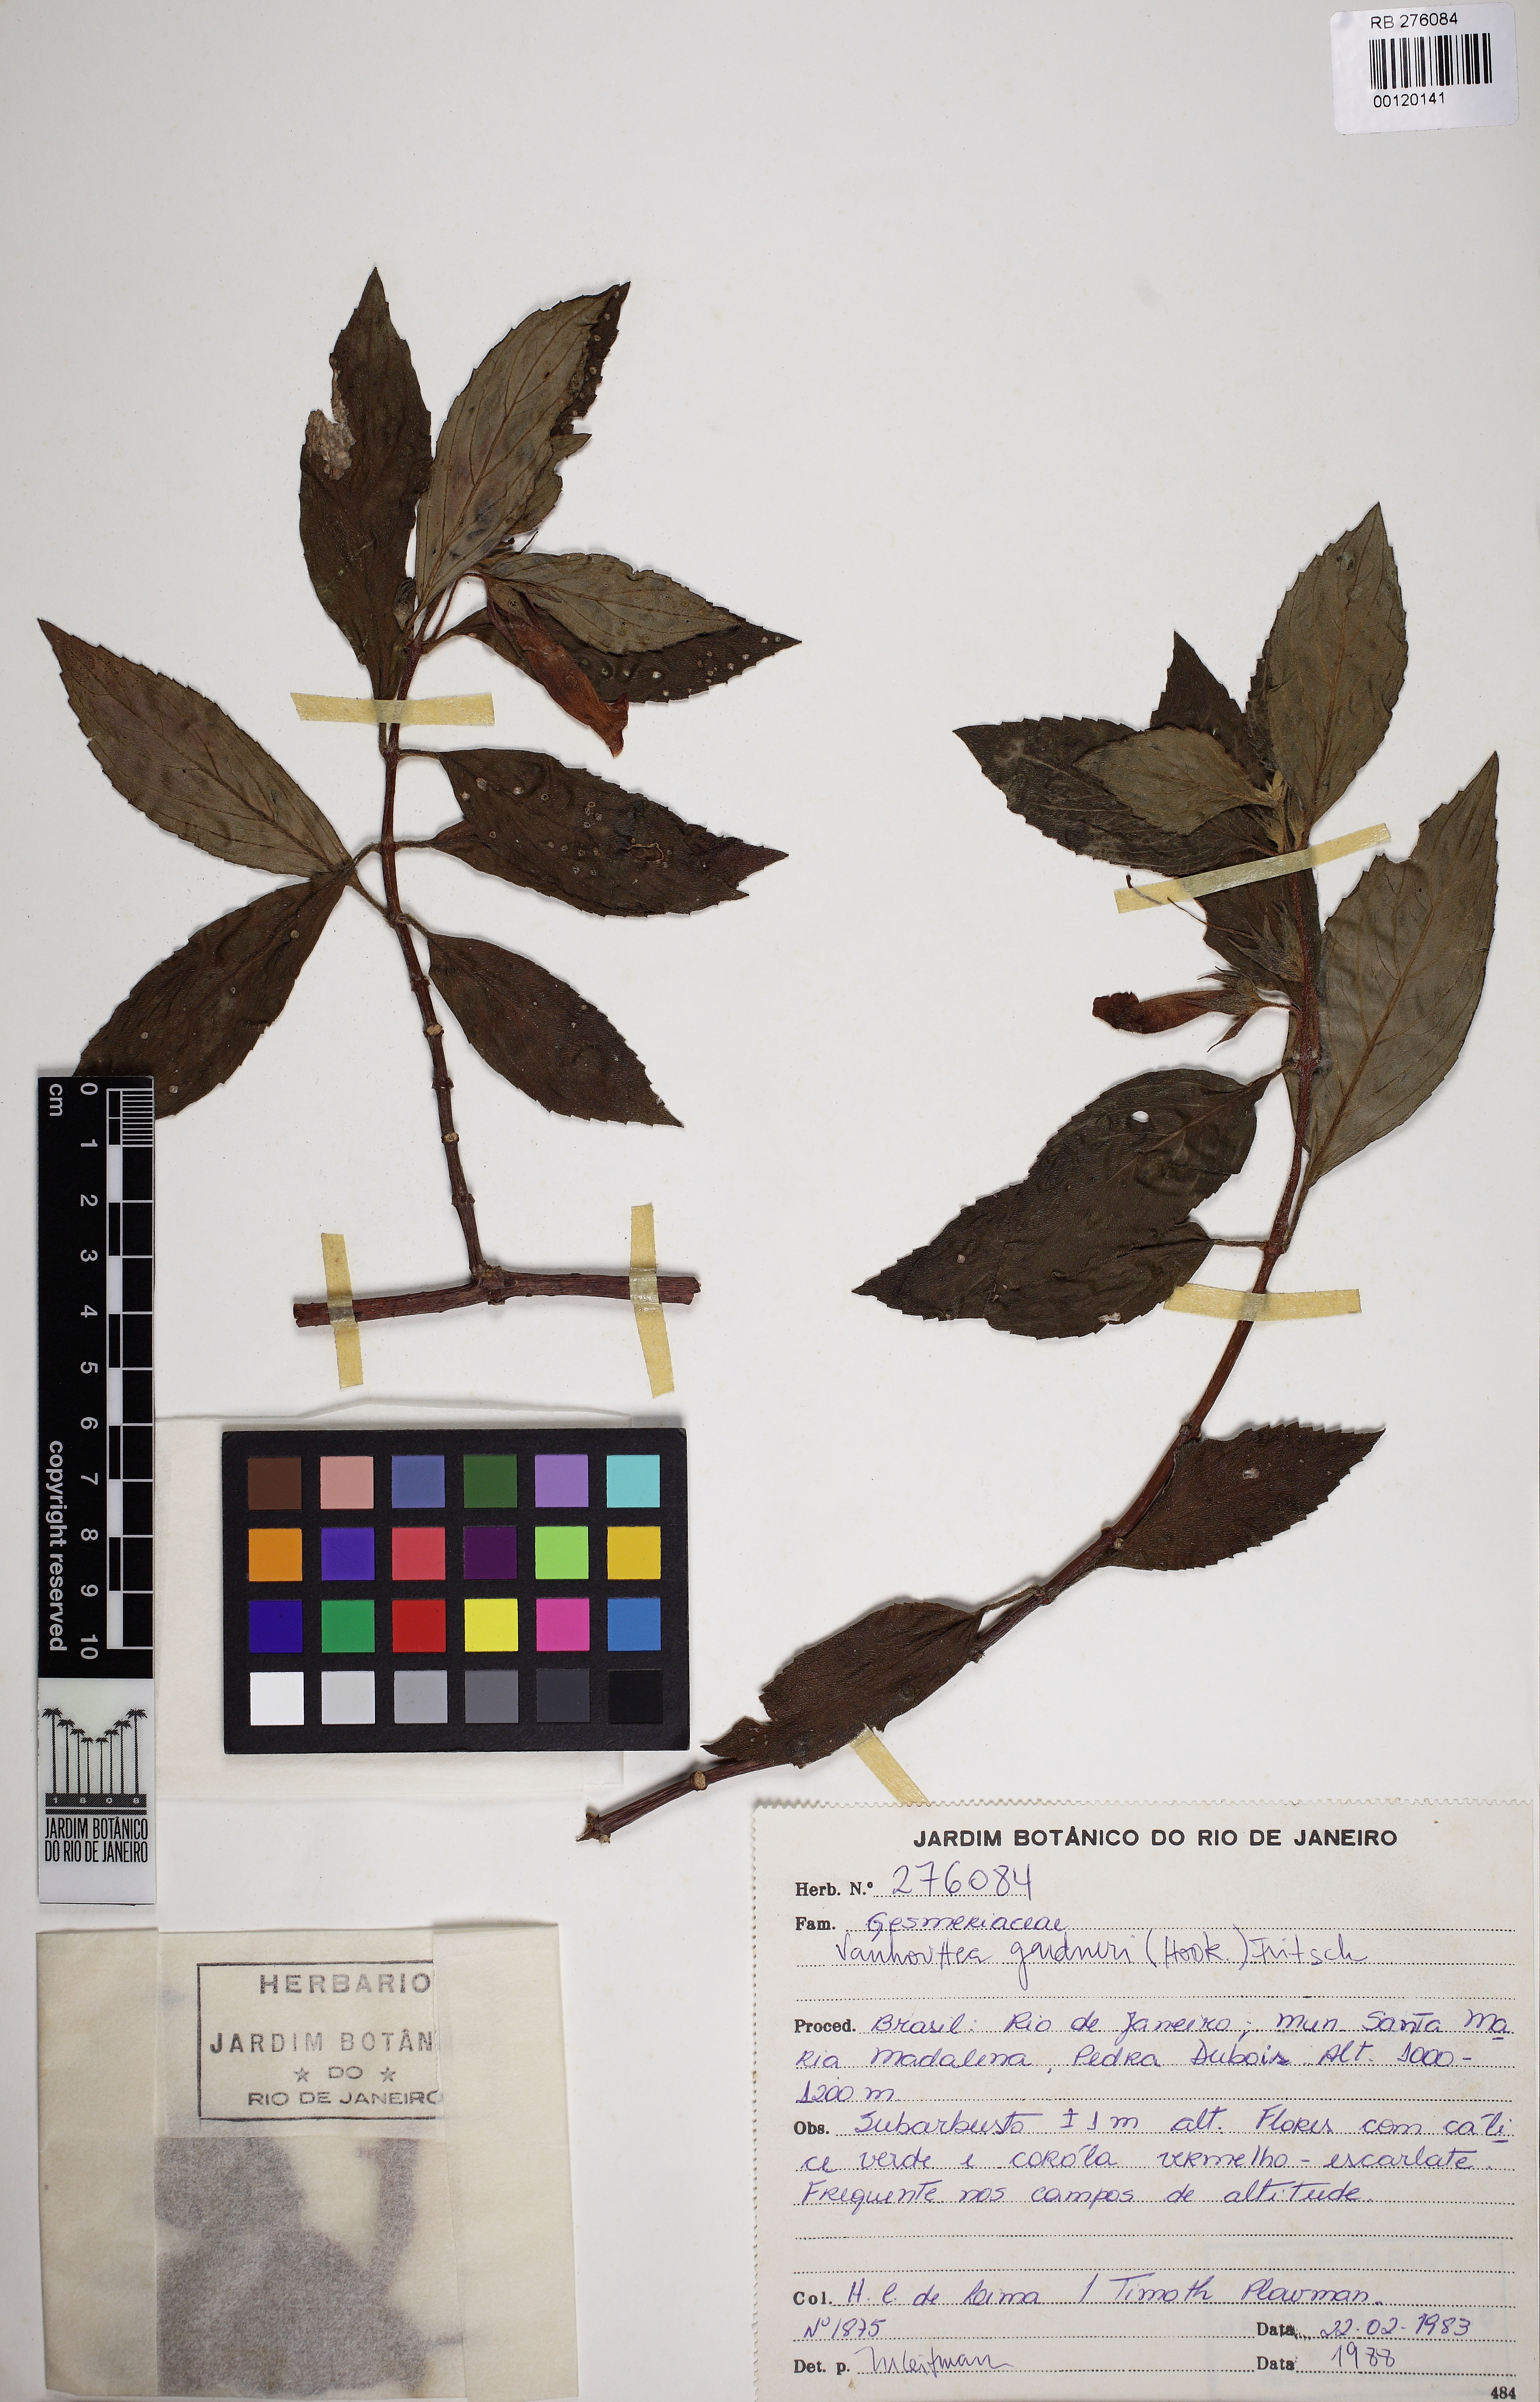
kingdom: Plantae
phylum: Tracheophyta
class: Magnoliopsida
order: Lamiales
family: Gesneriaceae
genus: Vanhouttea
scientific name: Vanhouttea gardneri
